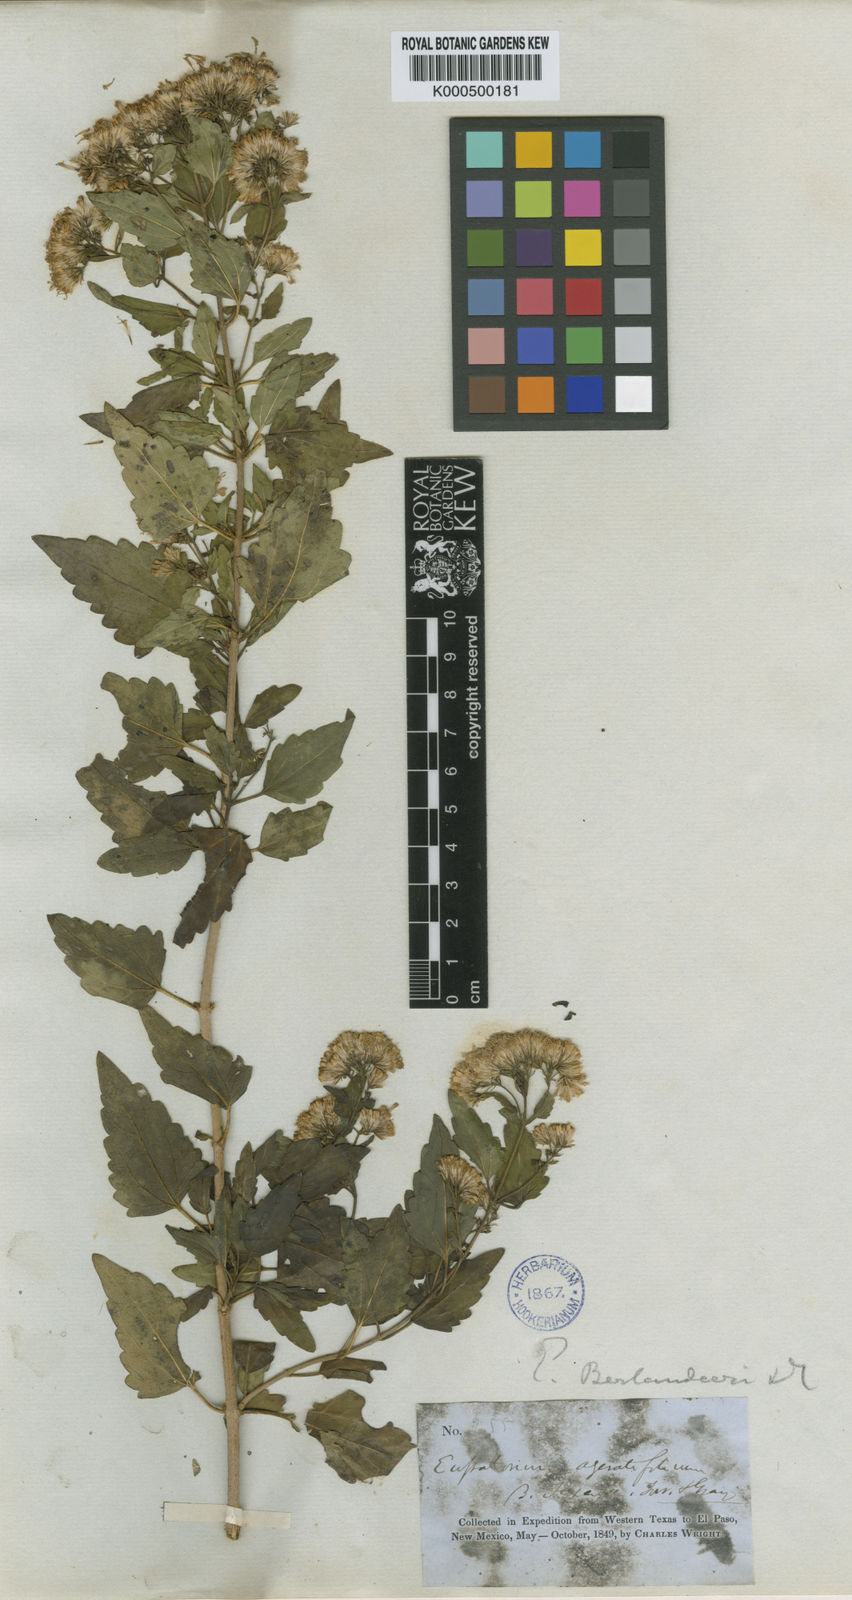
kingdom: Plantae
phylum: Tracheophyta
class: Magnoliopsida
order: Asterales
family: Asteraceae
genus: Ageratina
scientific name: Ageratina herbacea
